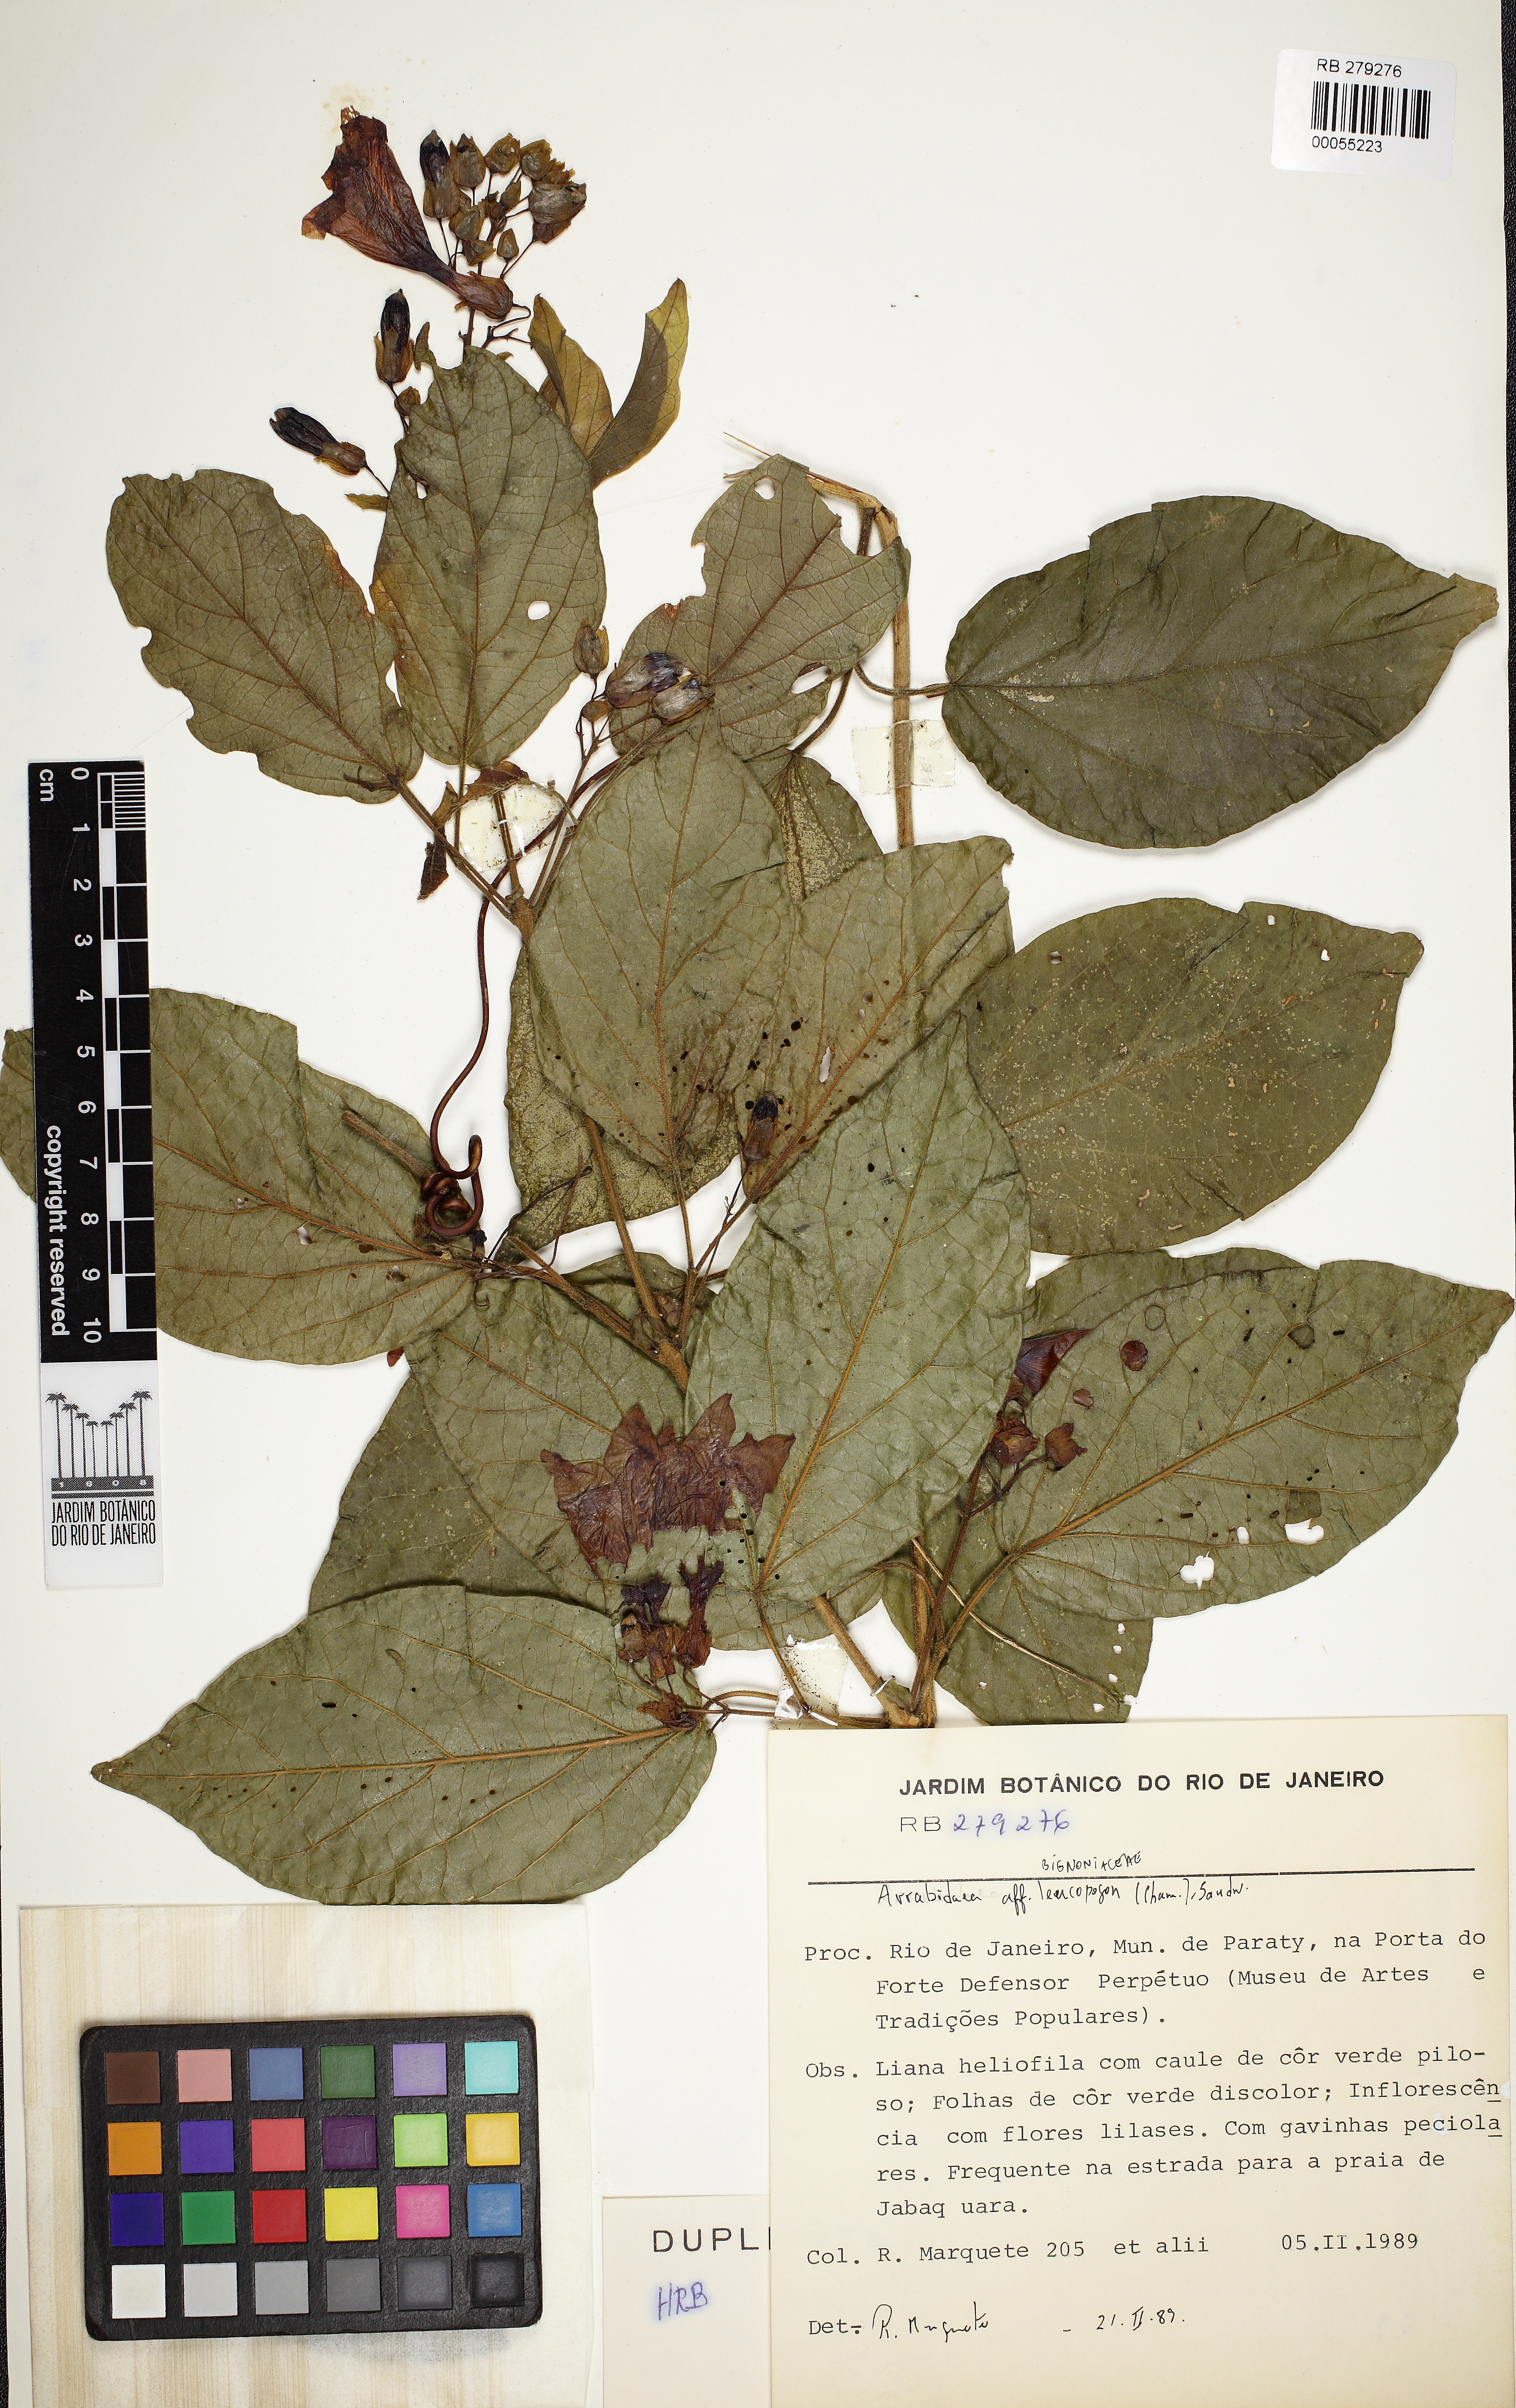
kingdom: Plantae
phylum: Tracheophyta
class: Magnoliopsida
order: Lamiales
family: Bignoniaceae
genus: Fridericia
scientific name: Fridericia leucopogon
